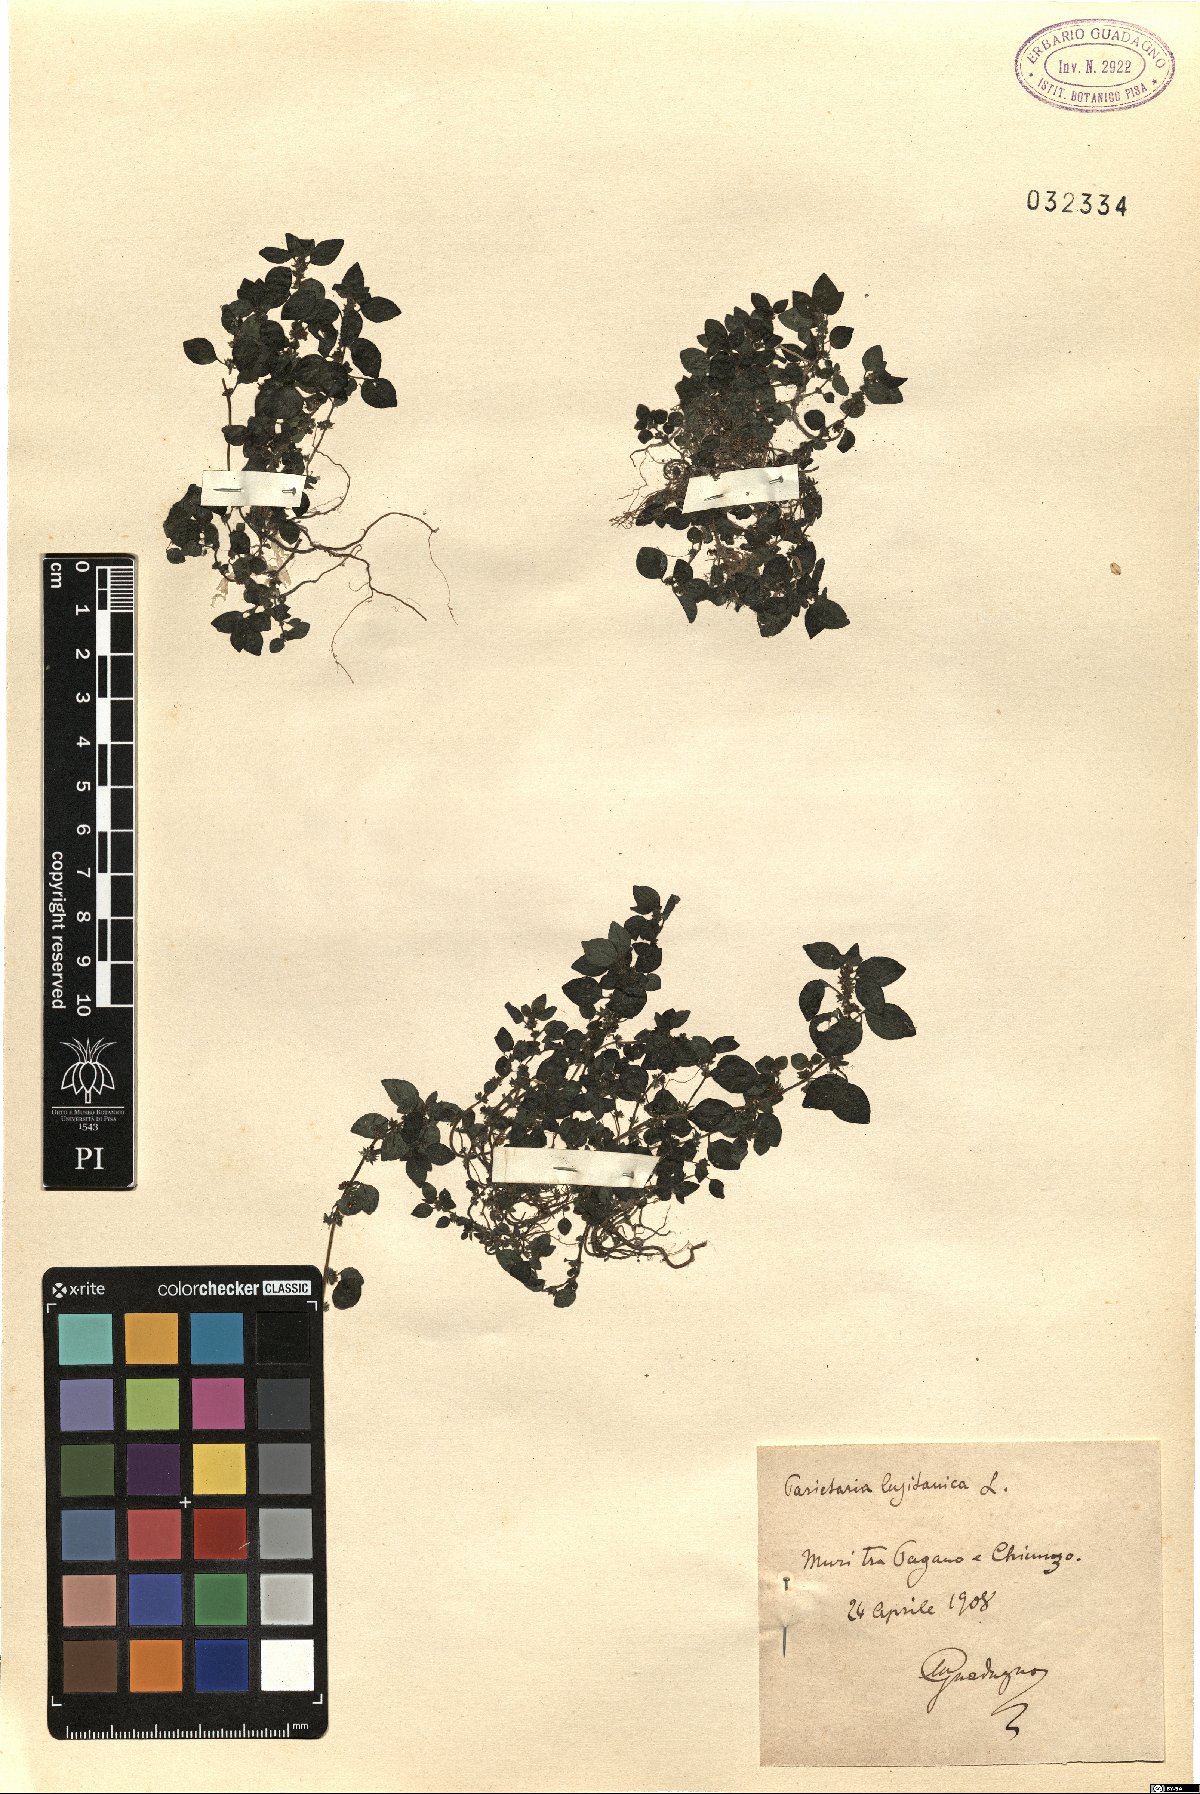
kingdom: Plantae
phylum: Tracheophyta
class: Magnoliopsida
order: Rosales
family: Urticaceae
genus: Parietaria
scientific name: Parietaria lusitanica
